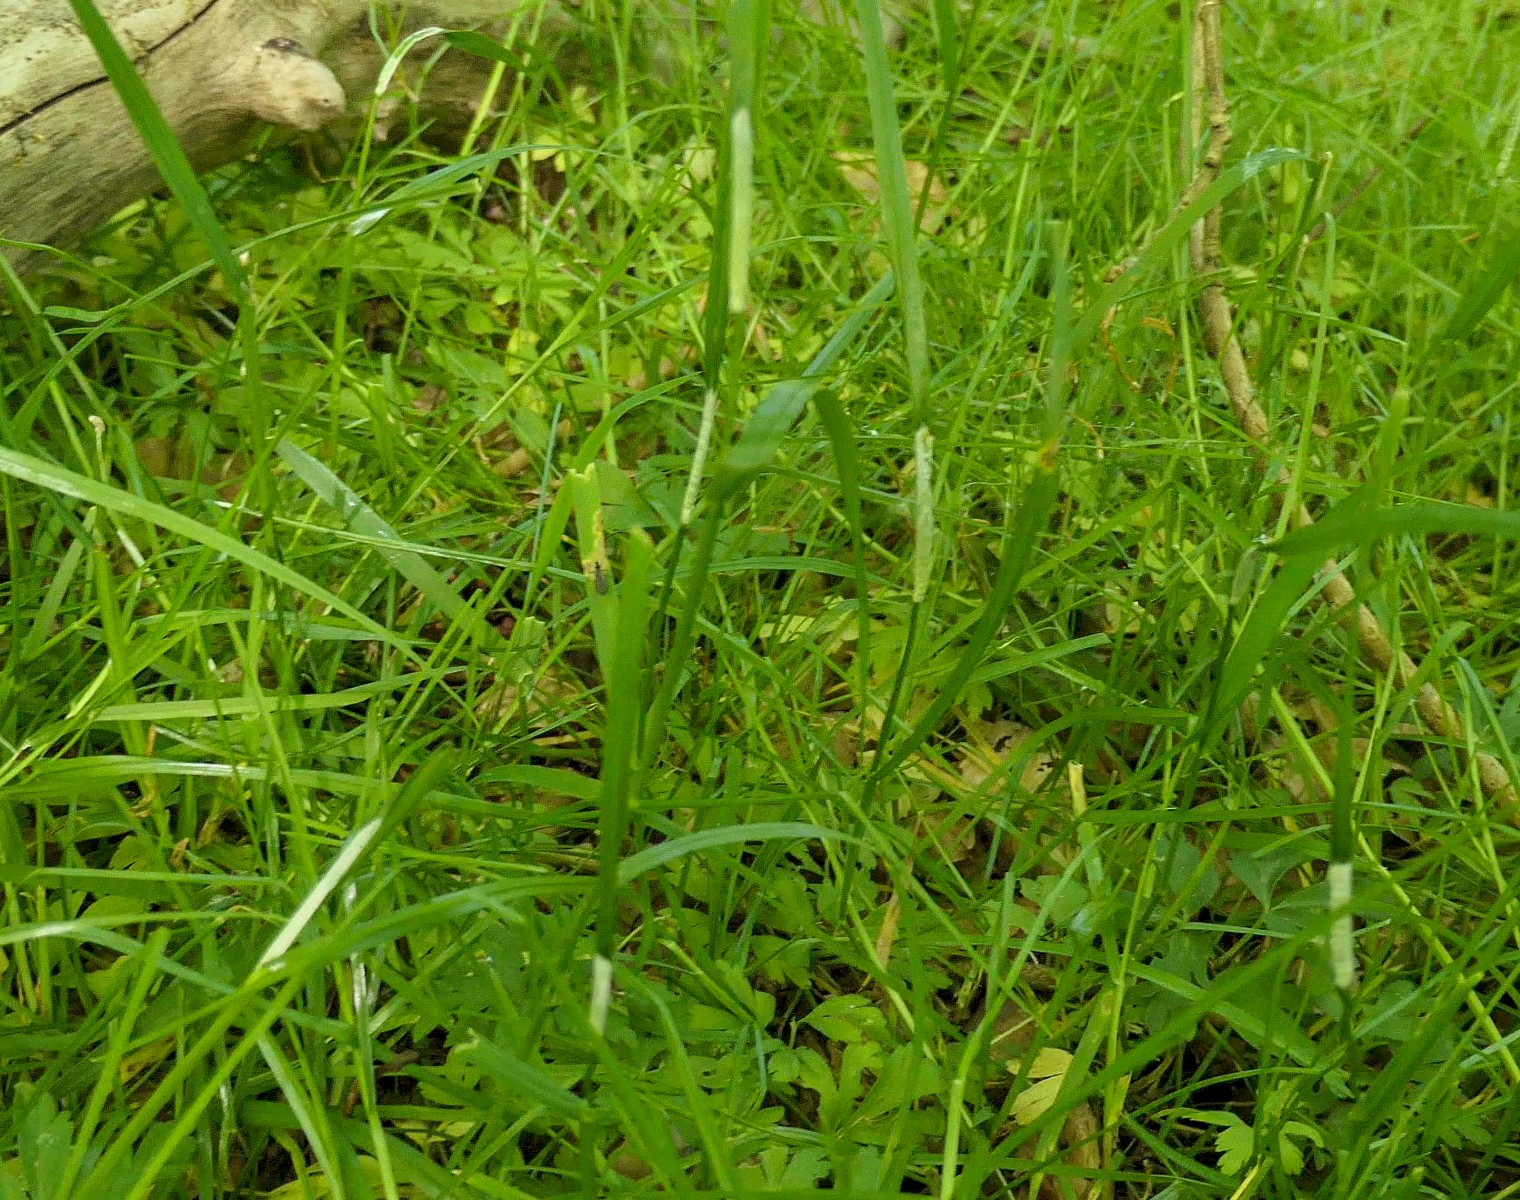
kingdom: Fungi
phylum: Ascomycota
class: Sordariomycetes
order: Hypocreales
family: Clavicipitaceae
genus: Epichloe
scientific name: Epichloe baconii
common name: hvene-kernerør
